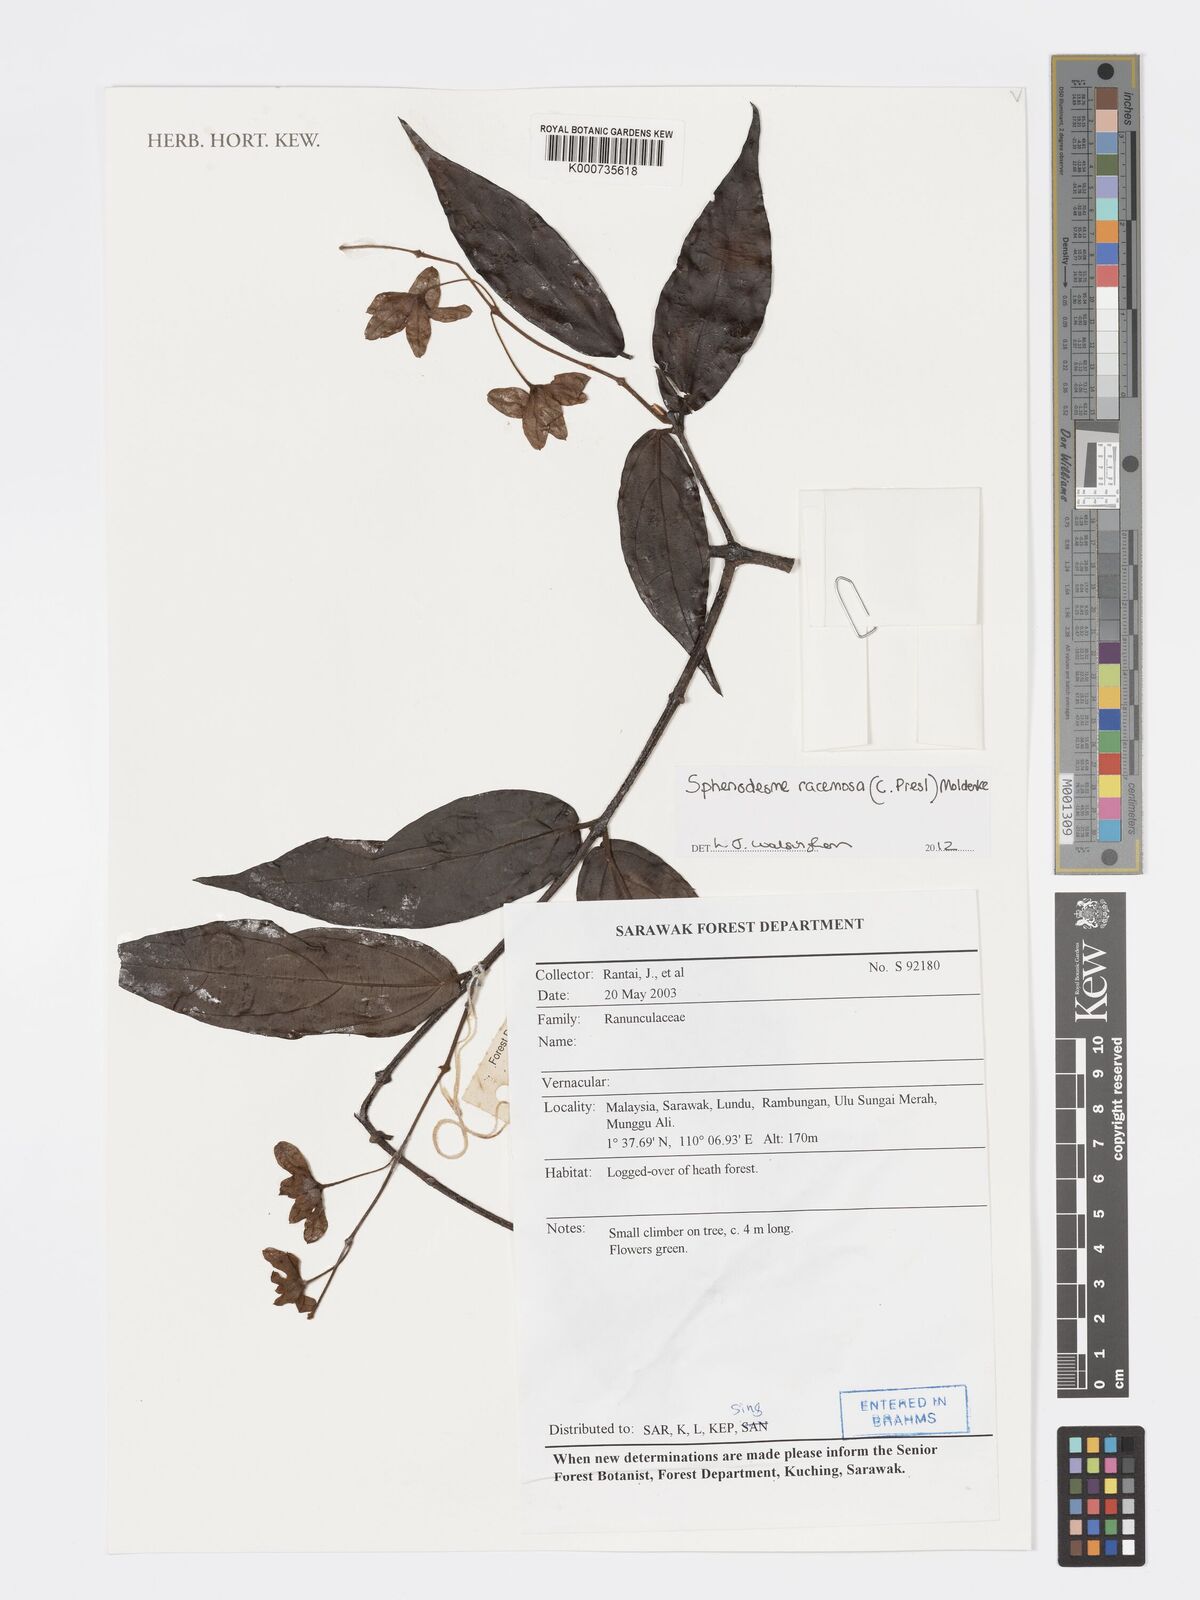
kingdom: Plantae
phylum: Tracheophyta
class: Magnoliopsida
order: Lamiales
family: Lamiaceae
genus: Sphenodesme
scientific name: Sphenodesme racemosa
